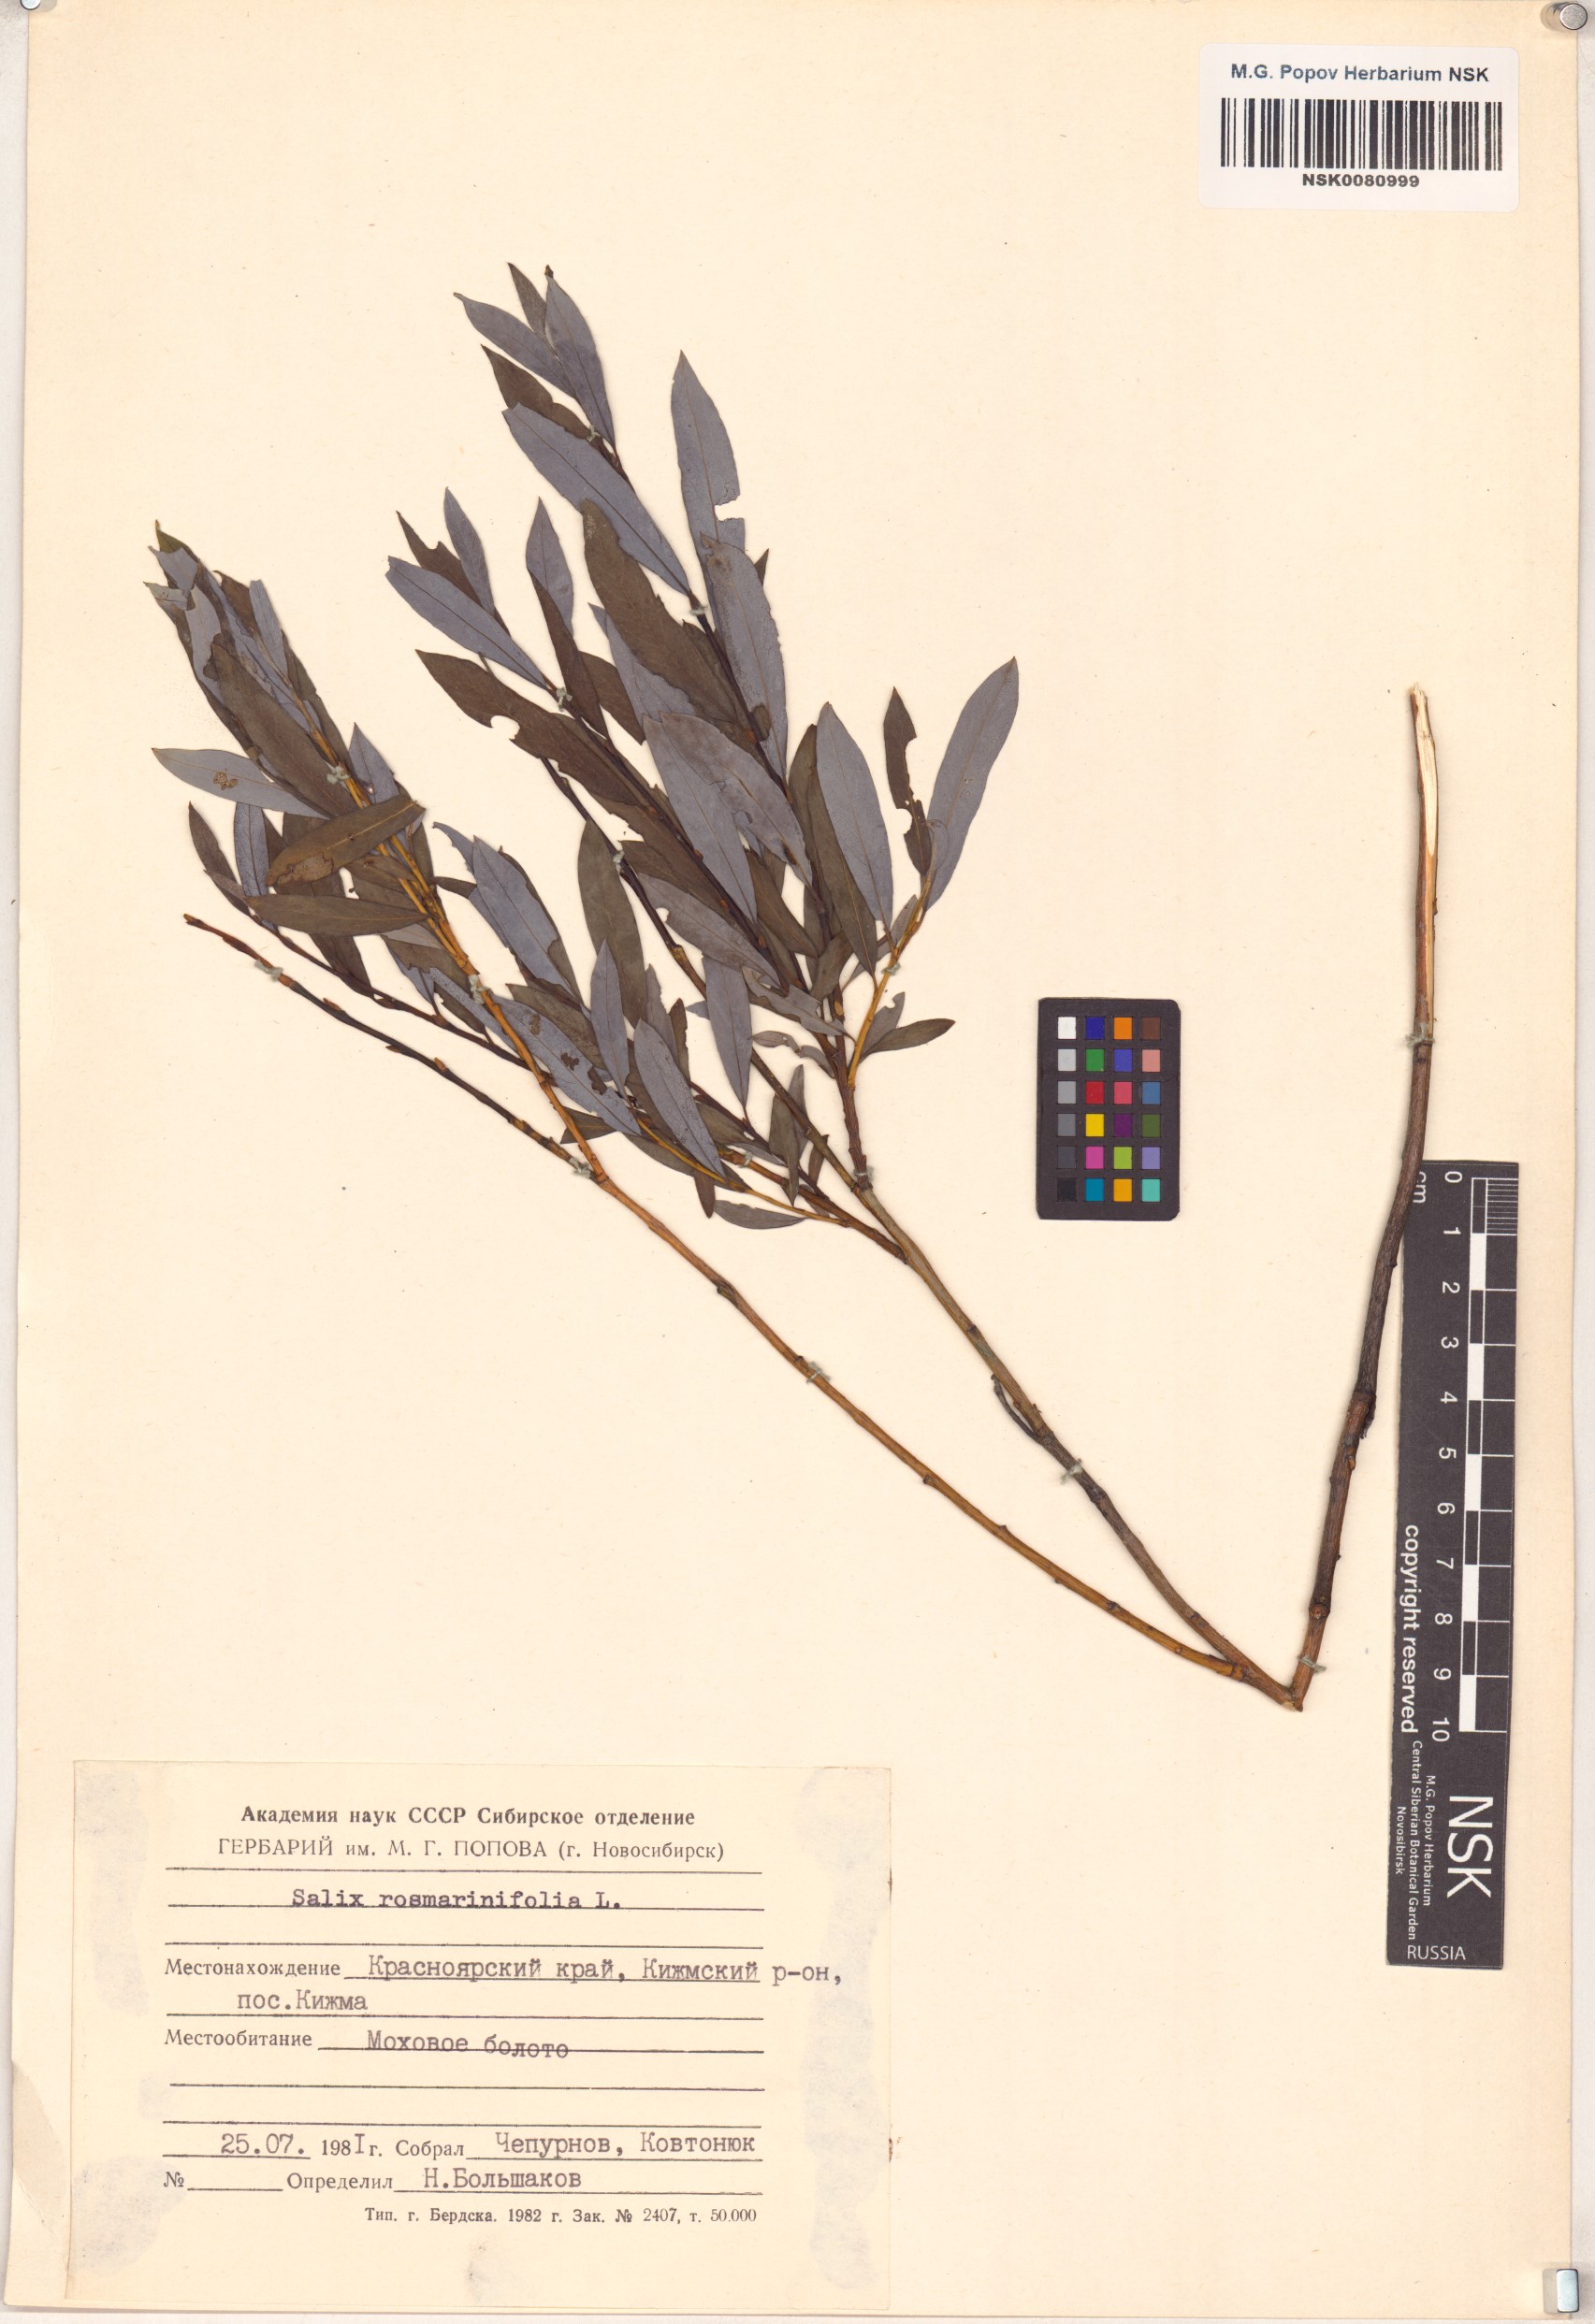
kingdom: Plantae
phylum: Tracheophyta
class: Magnoliopsida
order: Malpighiales
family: Salicaceae
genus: Salix
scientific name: Salix rosmarinifolia
